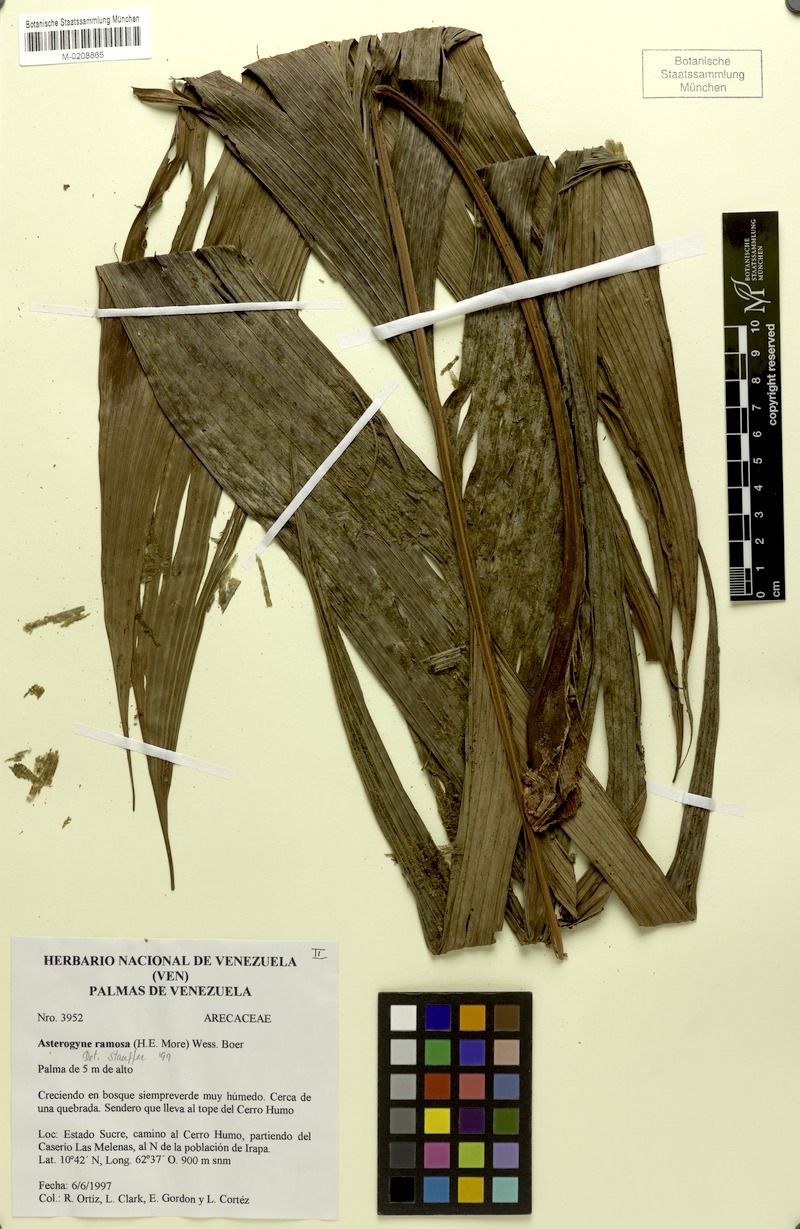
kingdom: Plantae
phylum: Tracheophyta
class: Liliopsida
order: Arecales
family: Arecaceae
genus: Asterogyne
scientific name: Asterogyne ramosa
